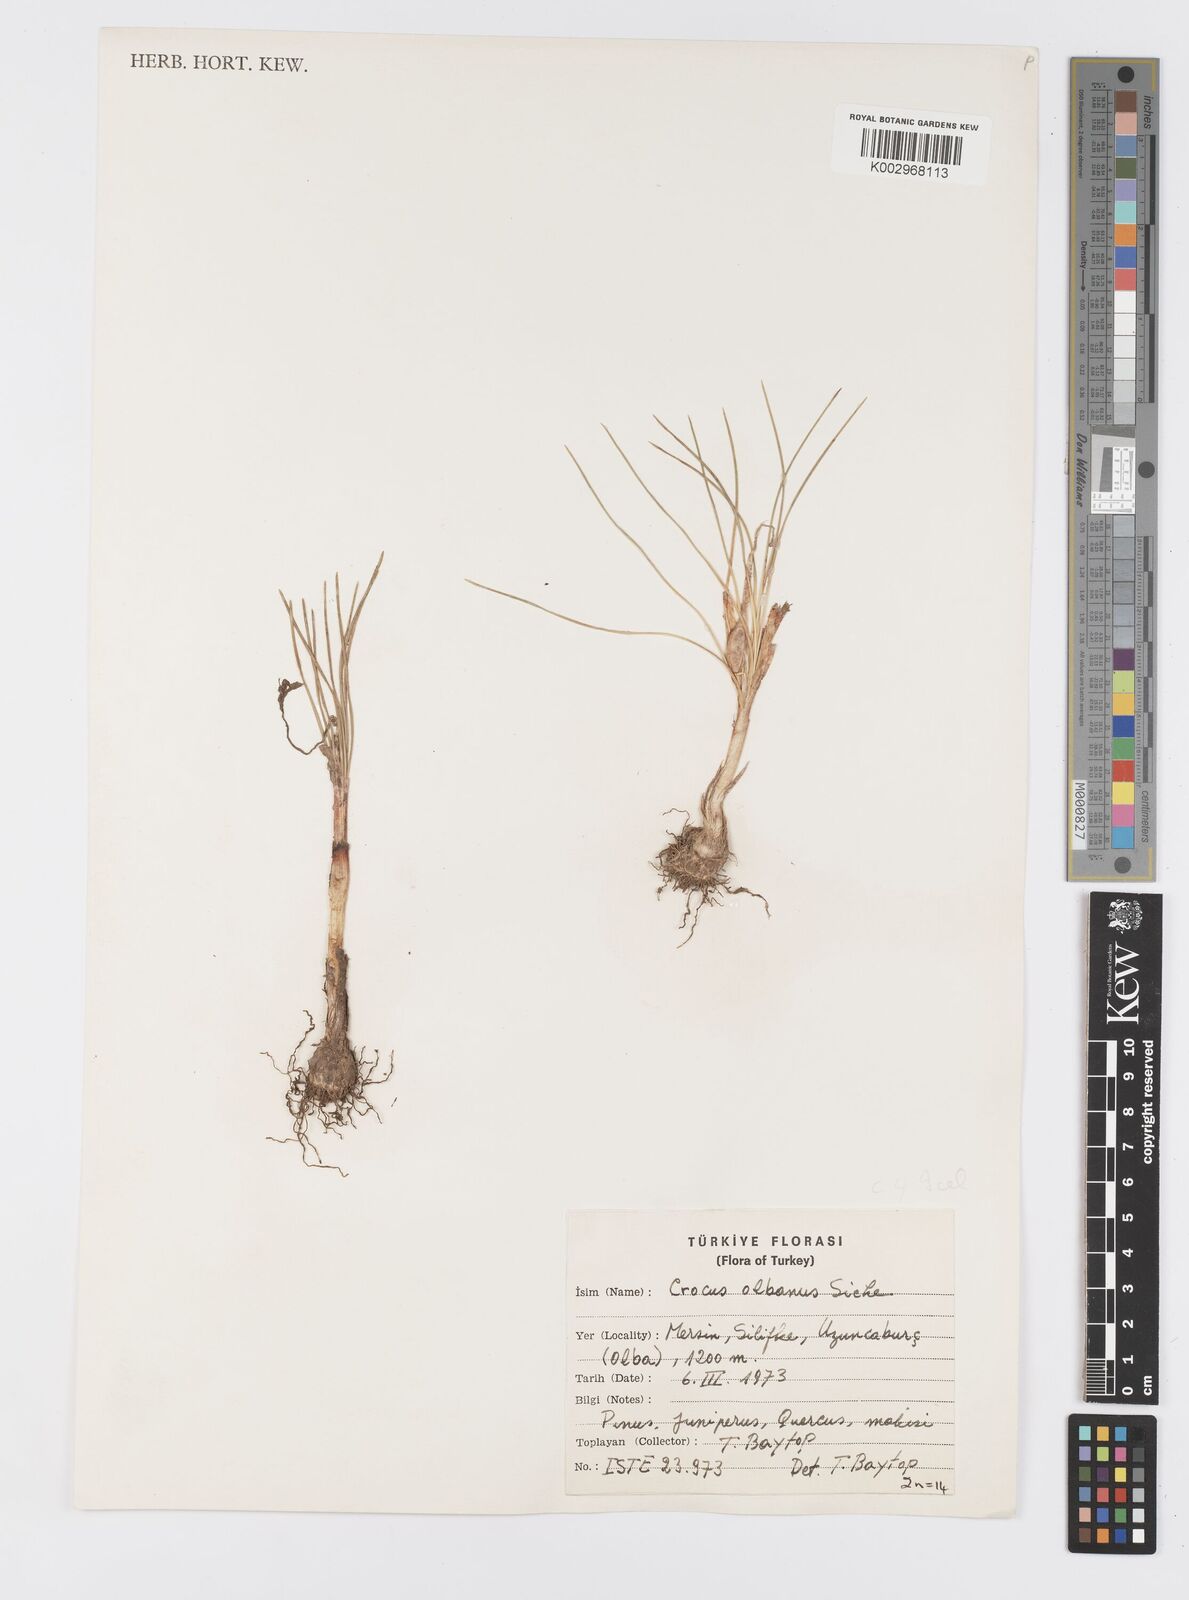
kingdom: Plantae
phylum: Tracheophyta
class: Liliopsida
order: Asparagales
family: Iridaceae
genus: Crocus
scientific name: Crocus
